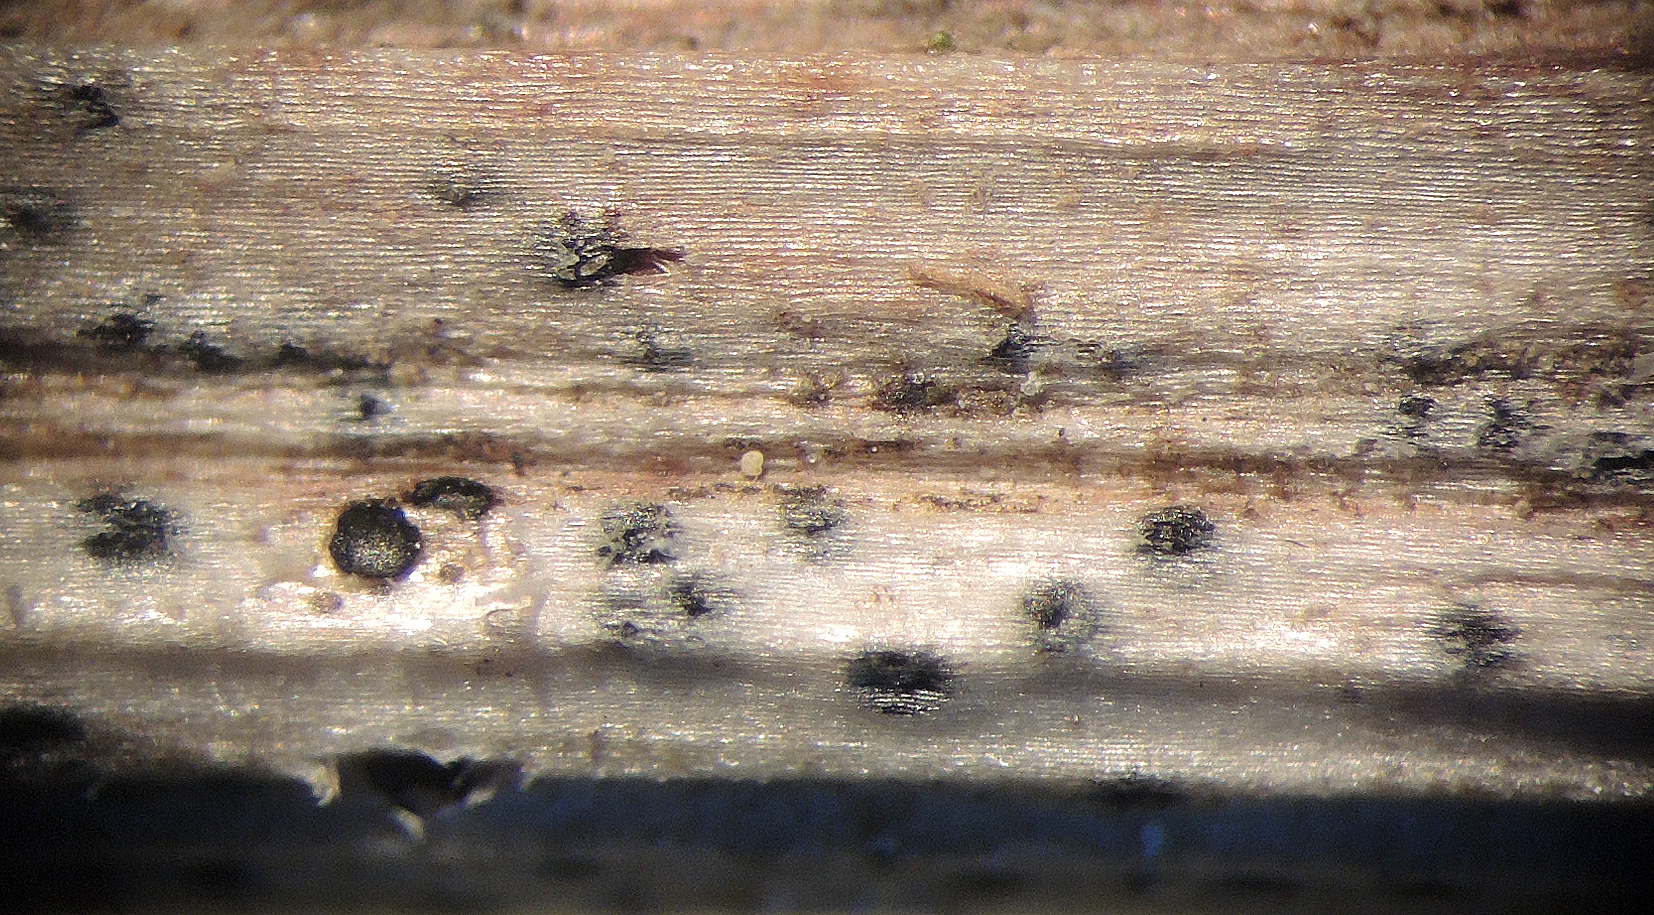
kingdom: Fungi
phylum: Ascomycota
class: Dothideomycetes
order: Pleosporales
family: Leptosphaeriaceae
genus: Leptosphaeria
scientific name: Leptosphaeria bellynckii
